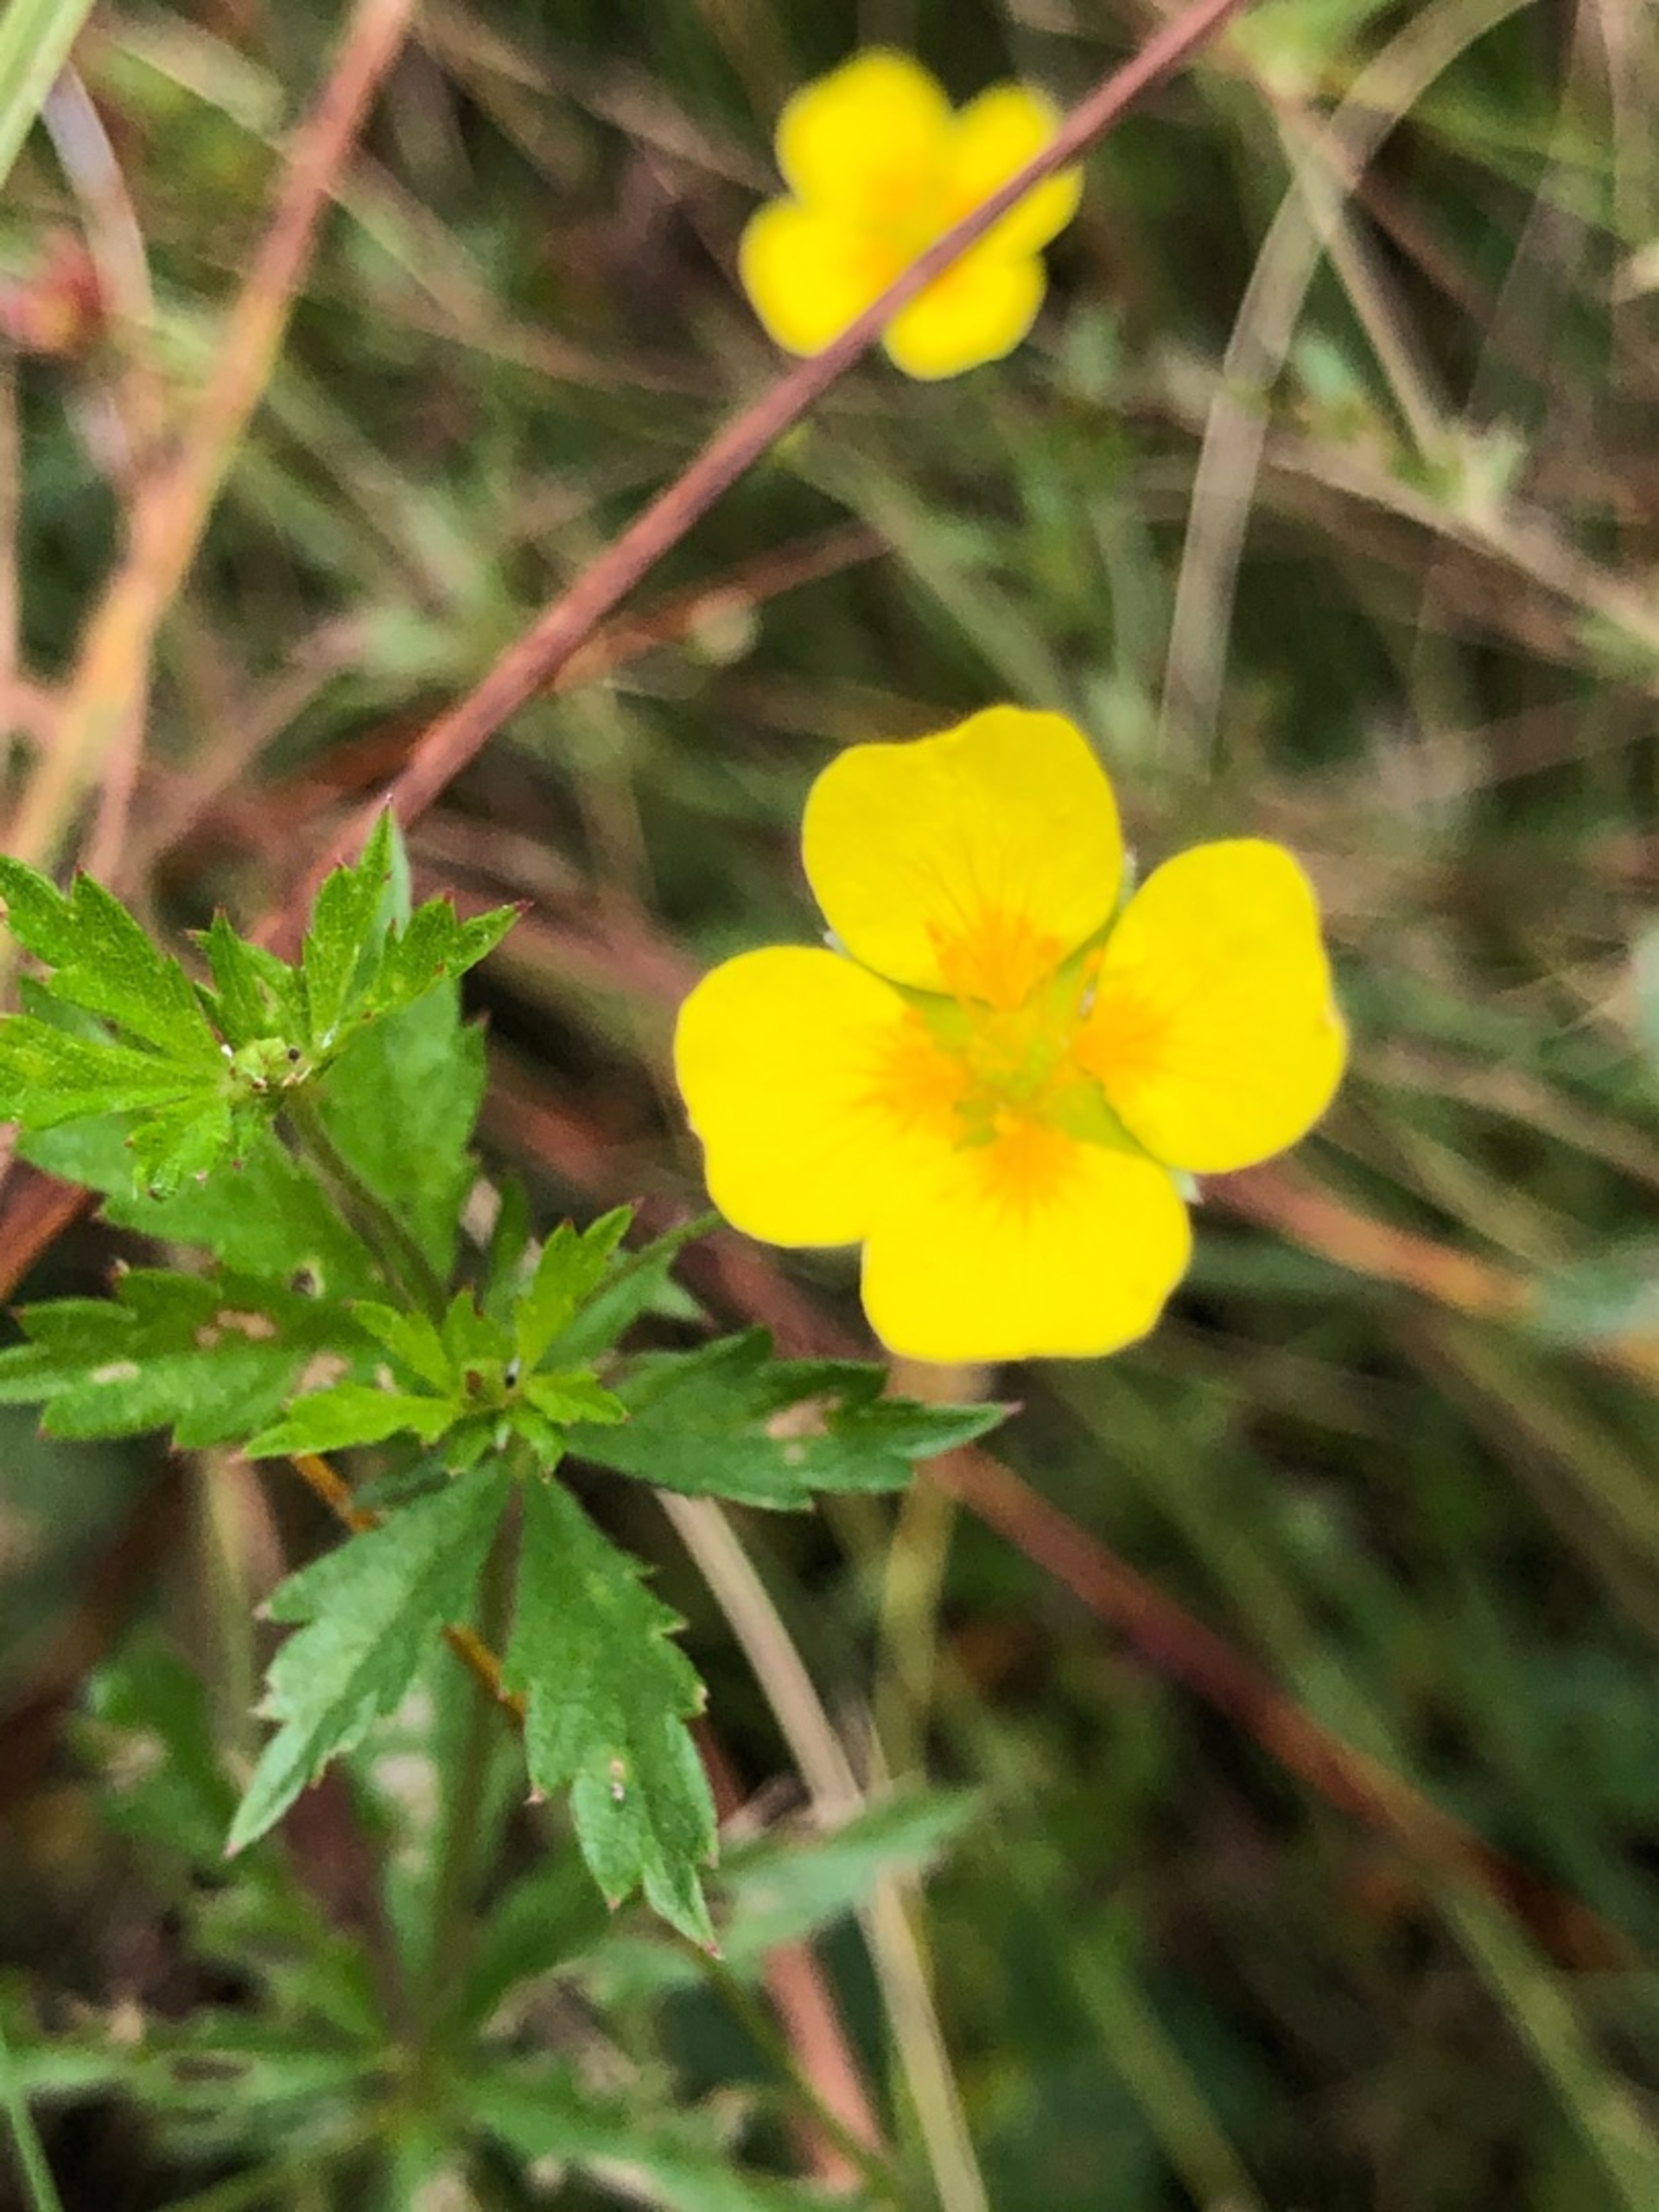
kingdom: Plantae
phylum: Tracheophyta
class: Magnoliopsida
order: Rosales
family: Rosaceae
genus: Potentilla
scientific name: Potentilla erecta
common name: Tormentil
